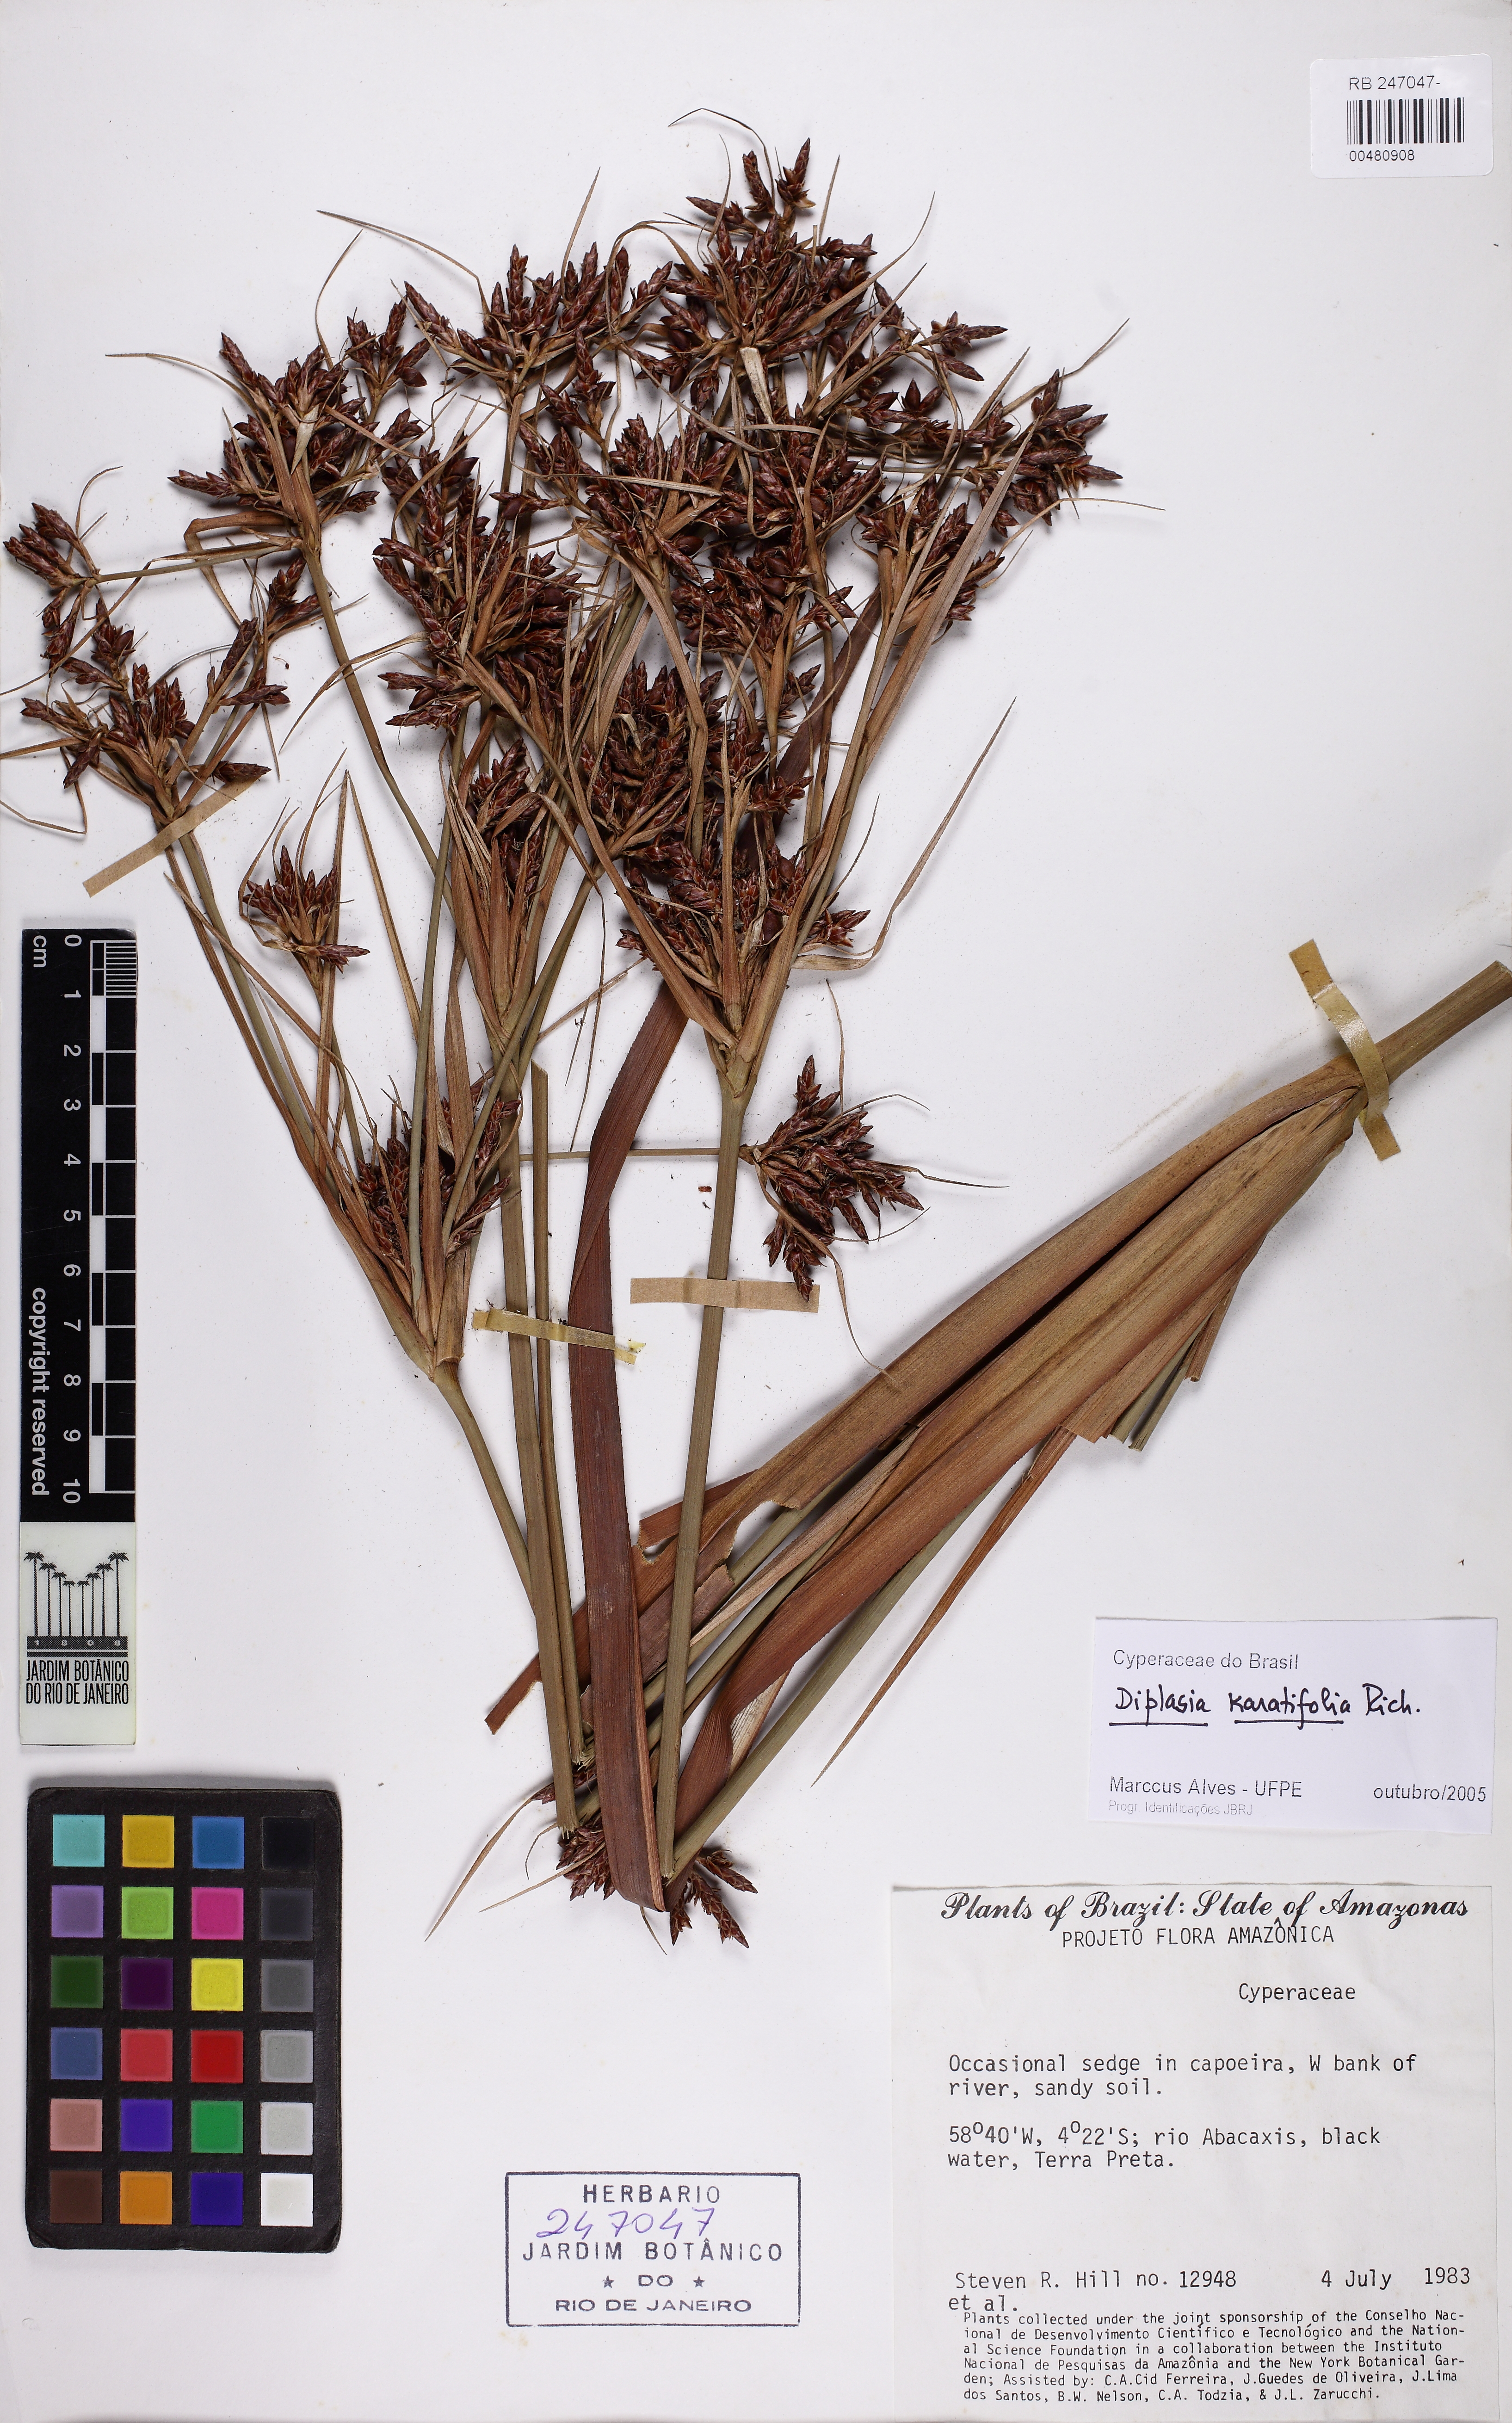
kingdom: Plantae
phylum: Tracheophyta
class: Liliopsida
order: Poales
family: Cyperaceae
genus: Diplasia
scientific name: Diplasia karatifolia
